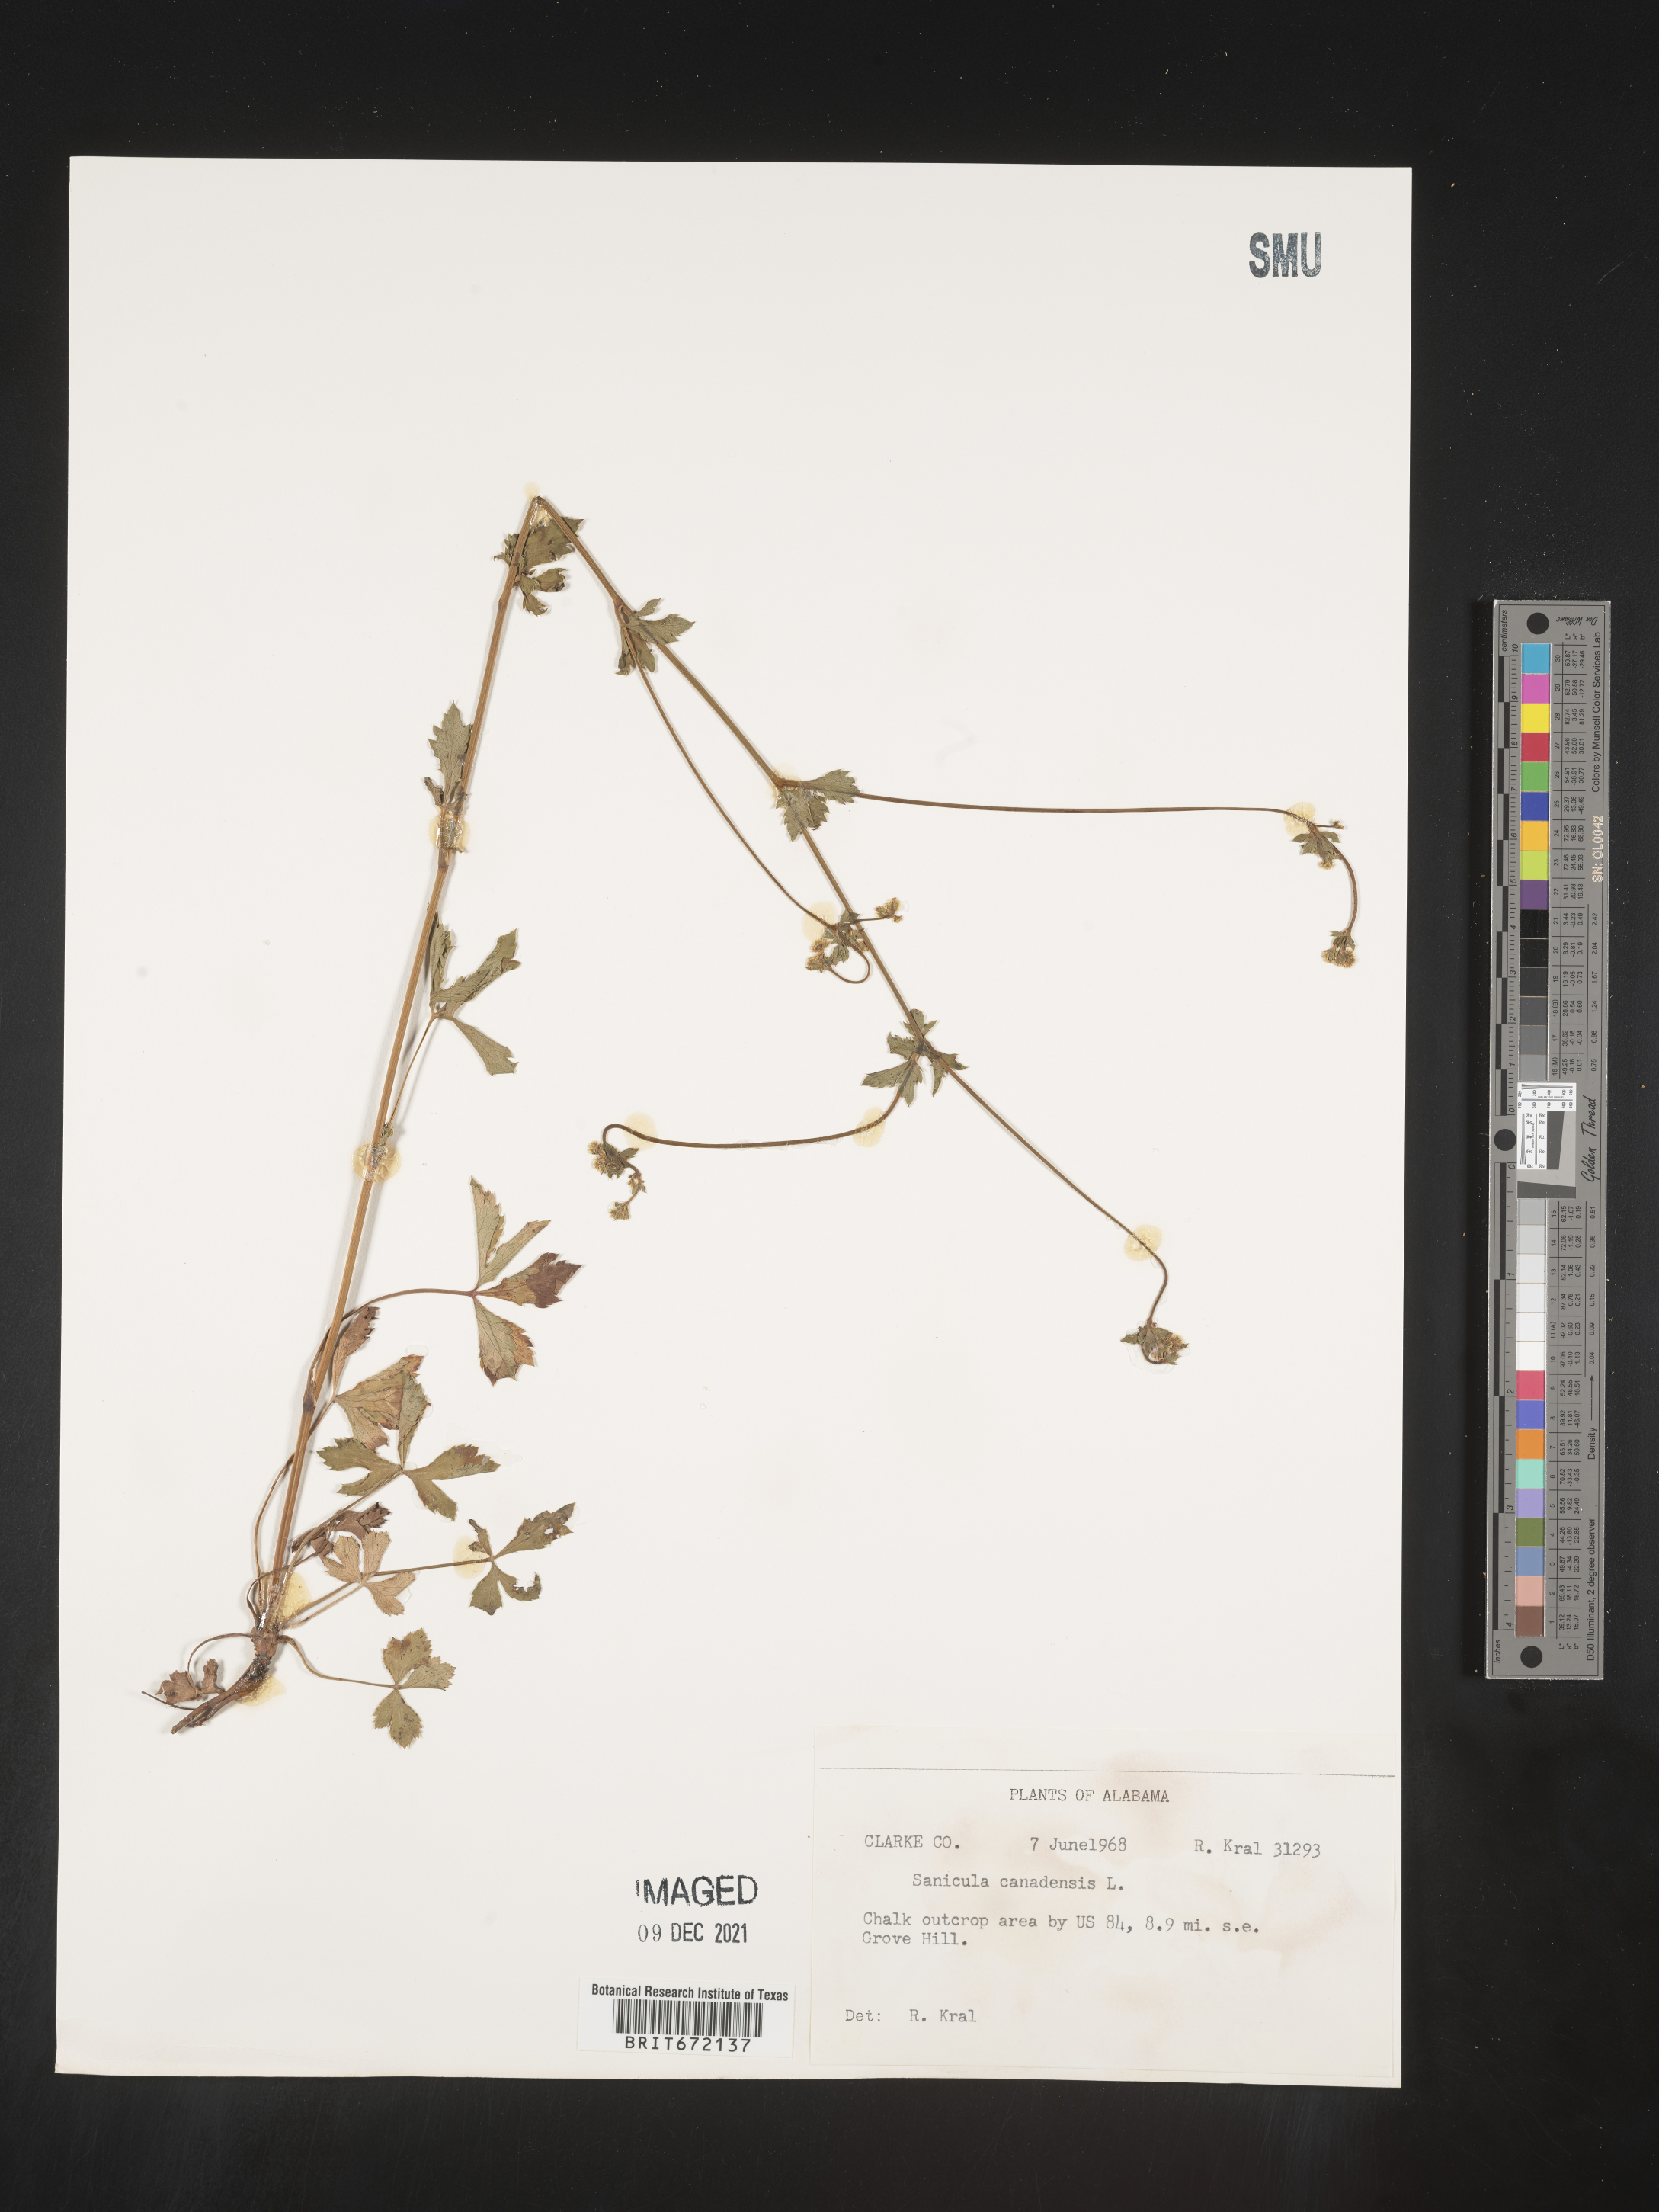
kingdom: Plantae
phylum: Tracheophyta
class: Magnoliopsida
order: Apiales
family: Apiaceae
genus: Sanicula
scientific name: Sanicula canadensis
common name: Canada sanicle
